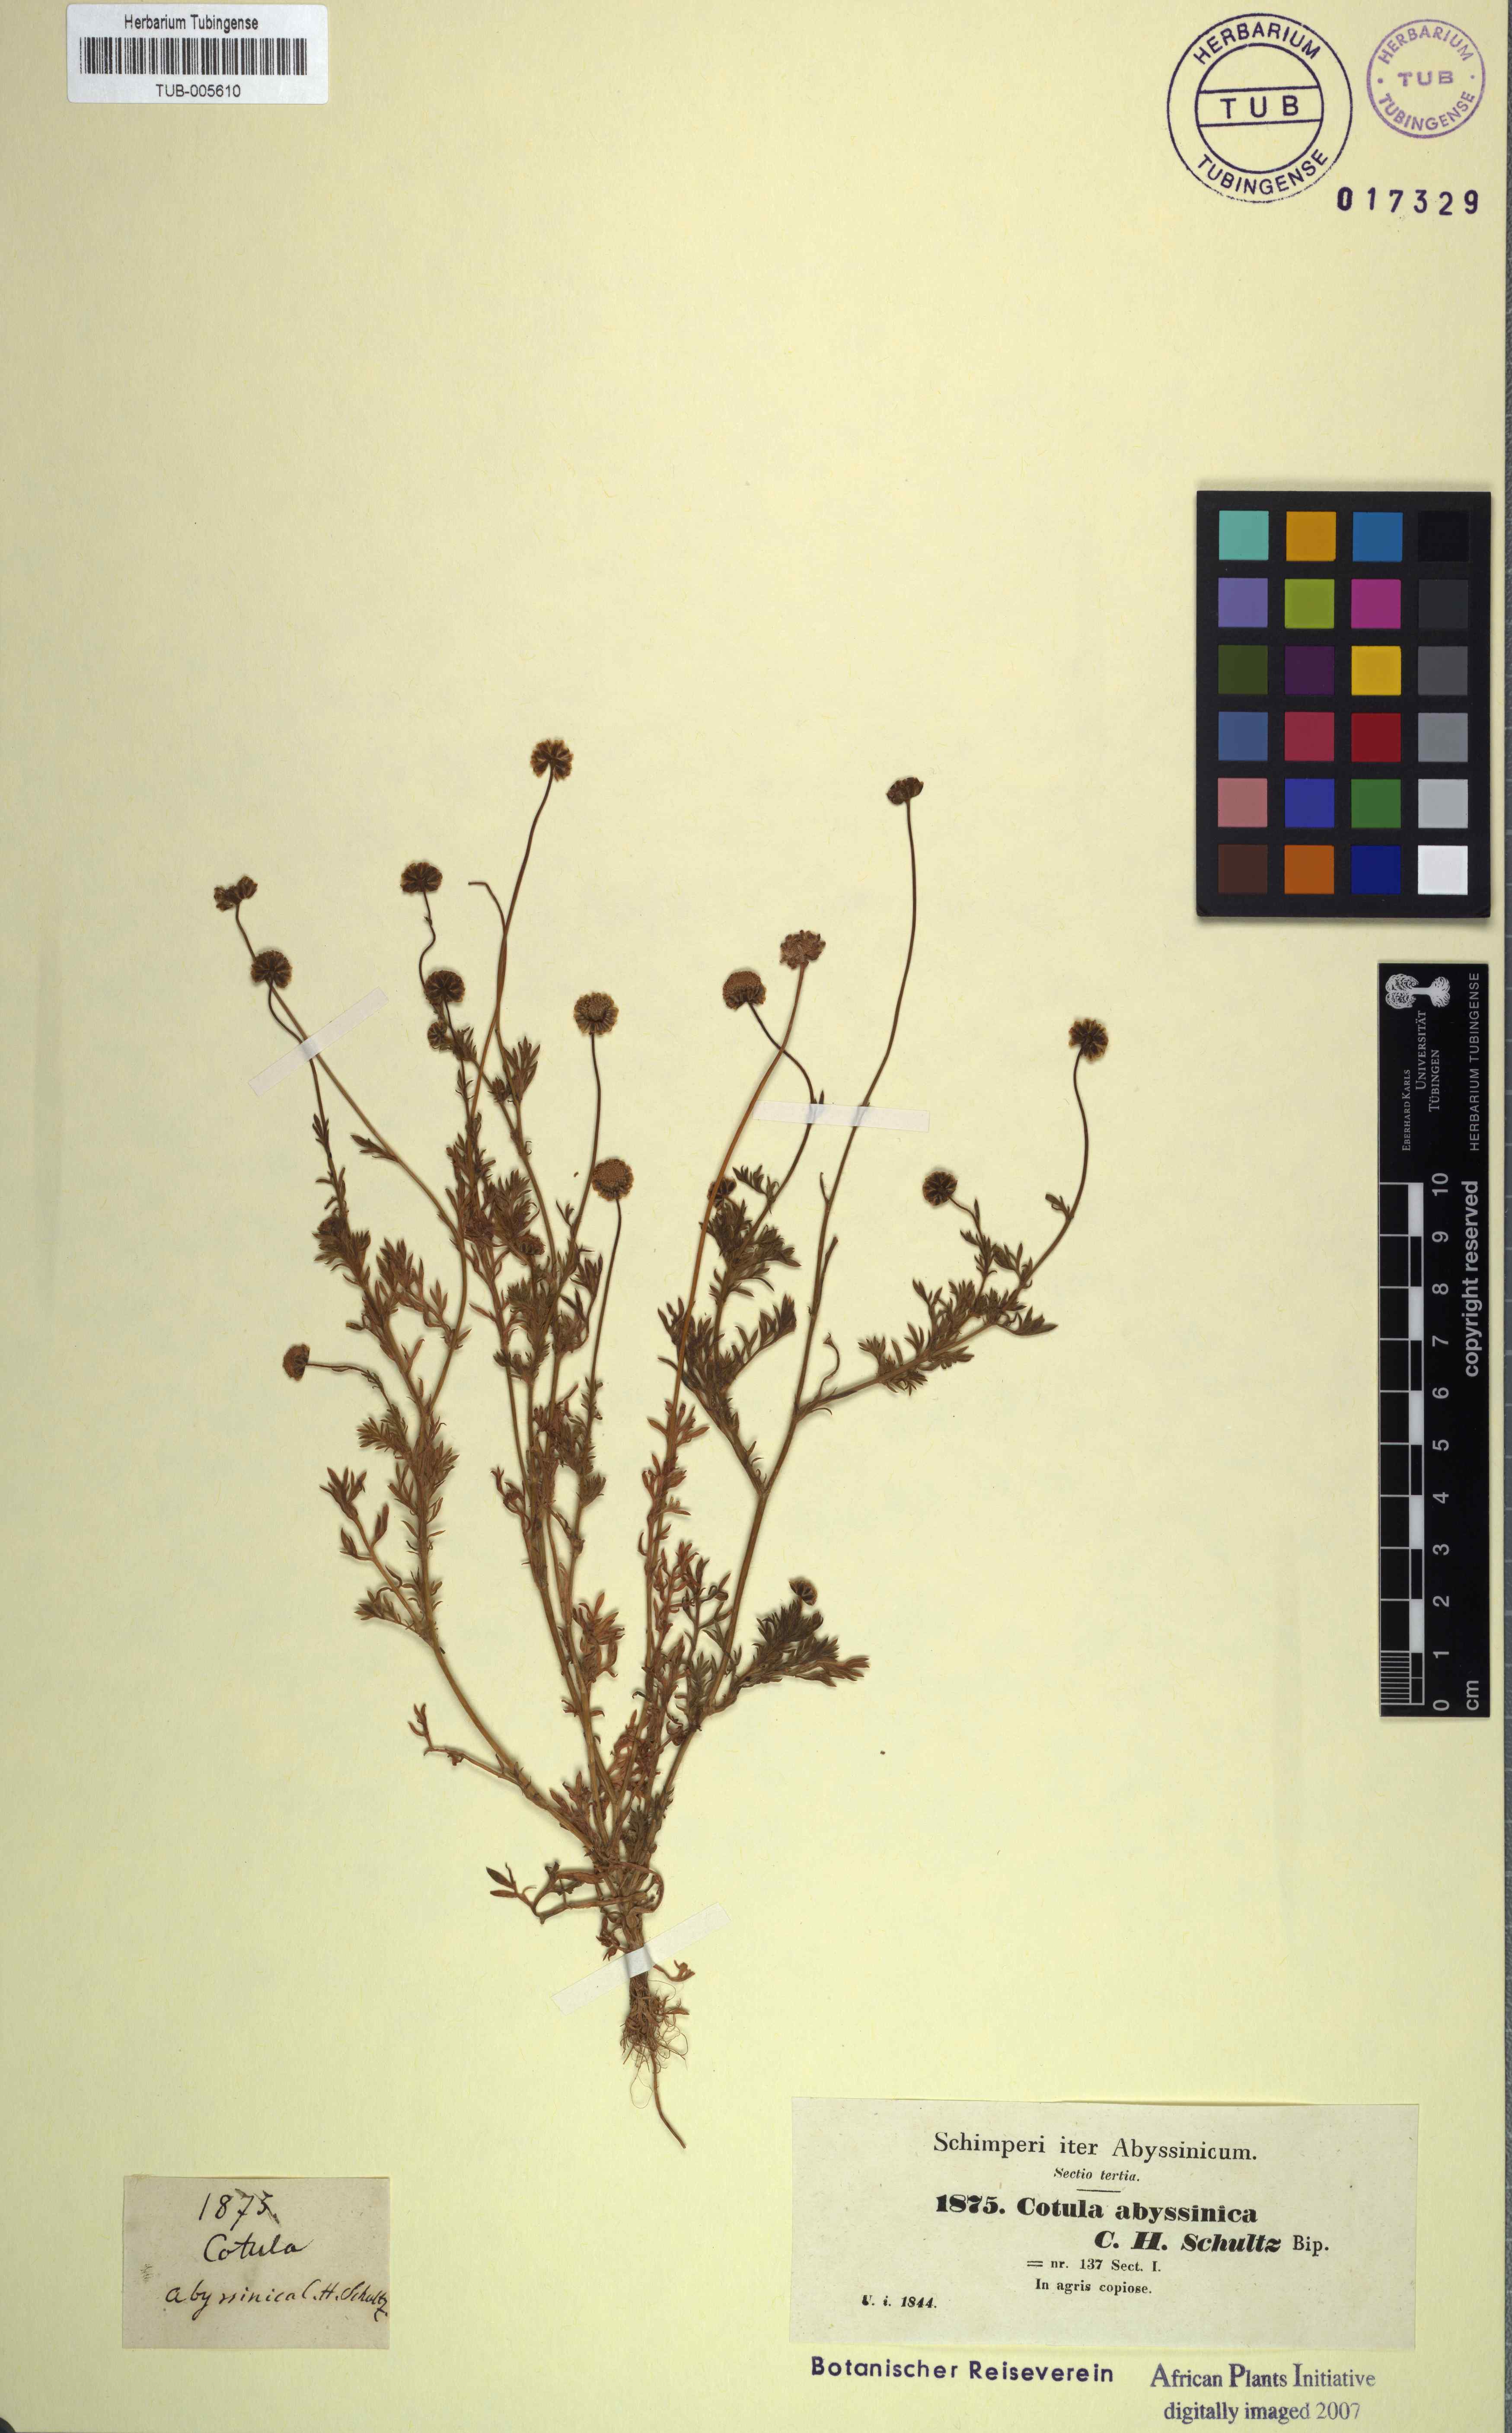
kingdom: Plantae
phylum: Tracheophyta
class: Magnoliopsida
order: Asterales
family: Asteraceae
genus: Cotula
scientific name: Cotula abyssinica
